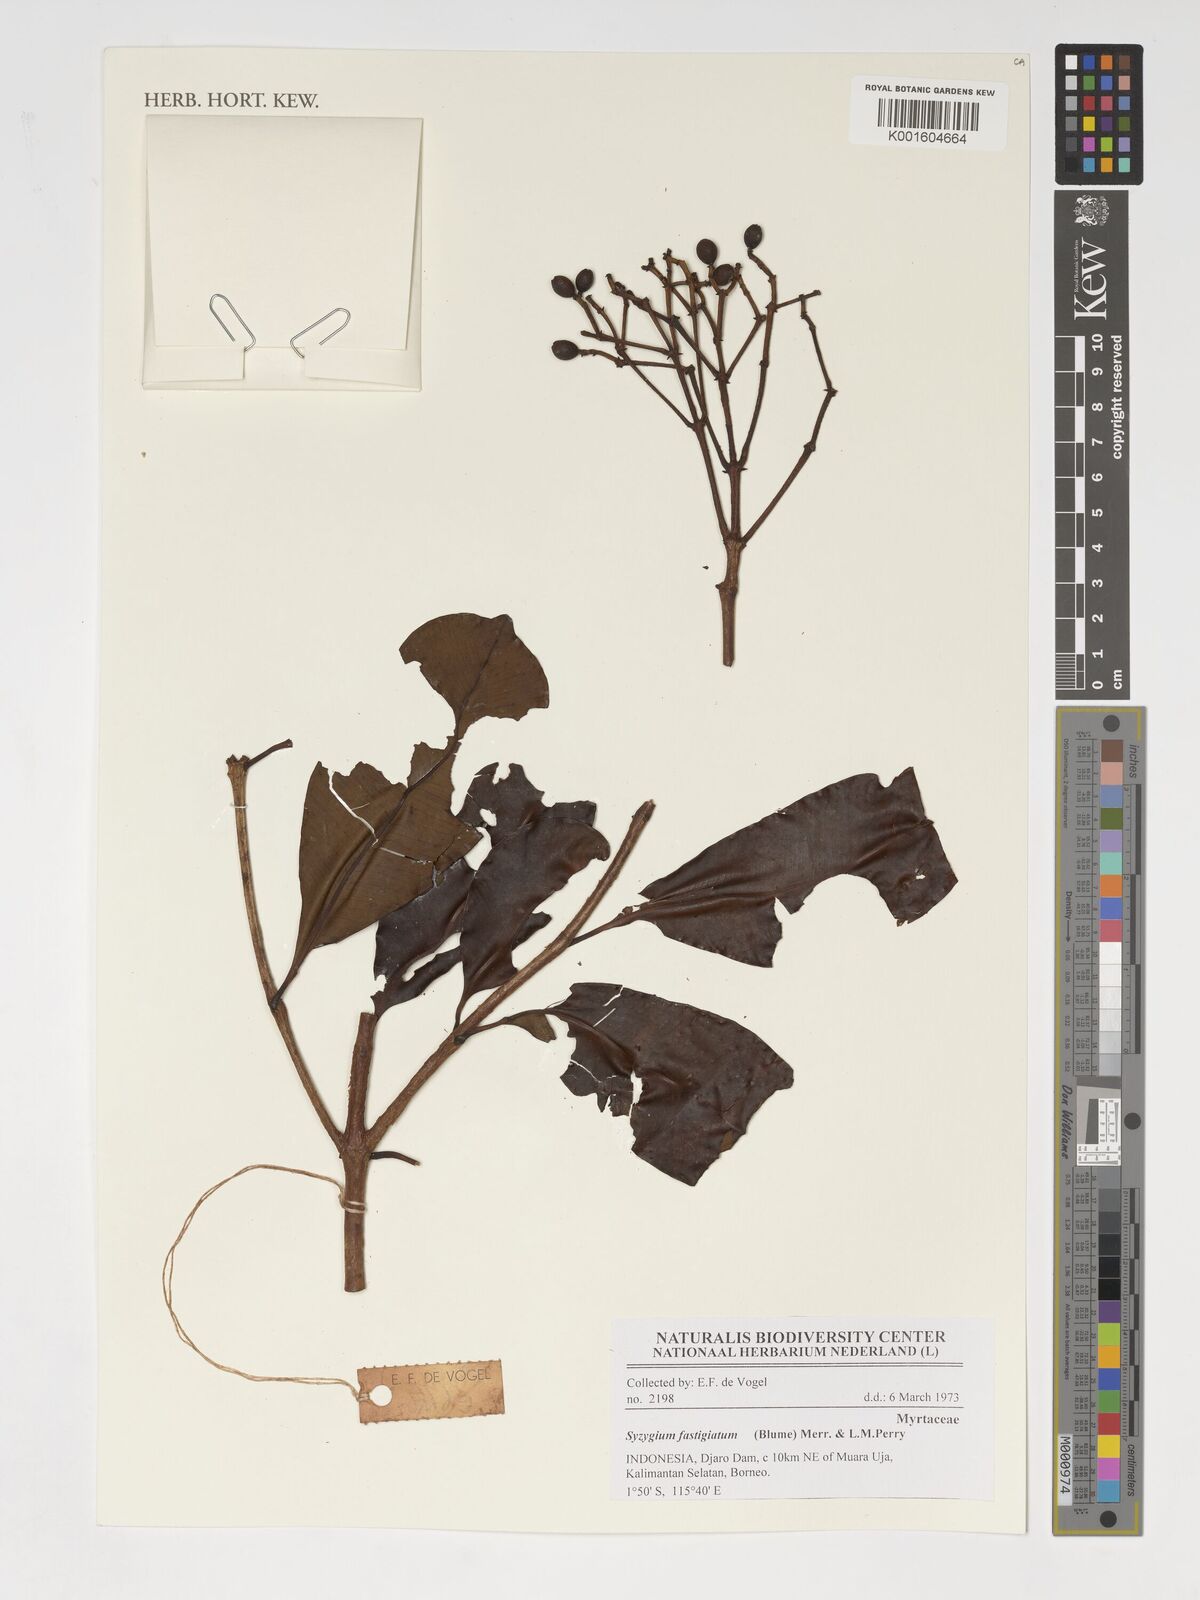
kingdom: Plantae
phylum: Tracheophyta
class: Magnoliopsida
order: Myrtales
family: Myrtaceae
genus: Syzygium
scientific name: Syzygium fastigiatum
